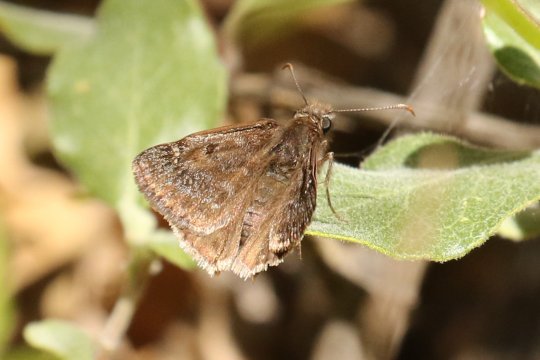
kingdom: Animalia
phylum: Arthropoda
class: Insecta
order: Lepidoptera
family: Hesperiidae
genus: Erynnis
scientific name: Erynnis meridianus
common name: Meridian Duskywing
